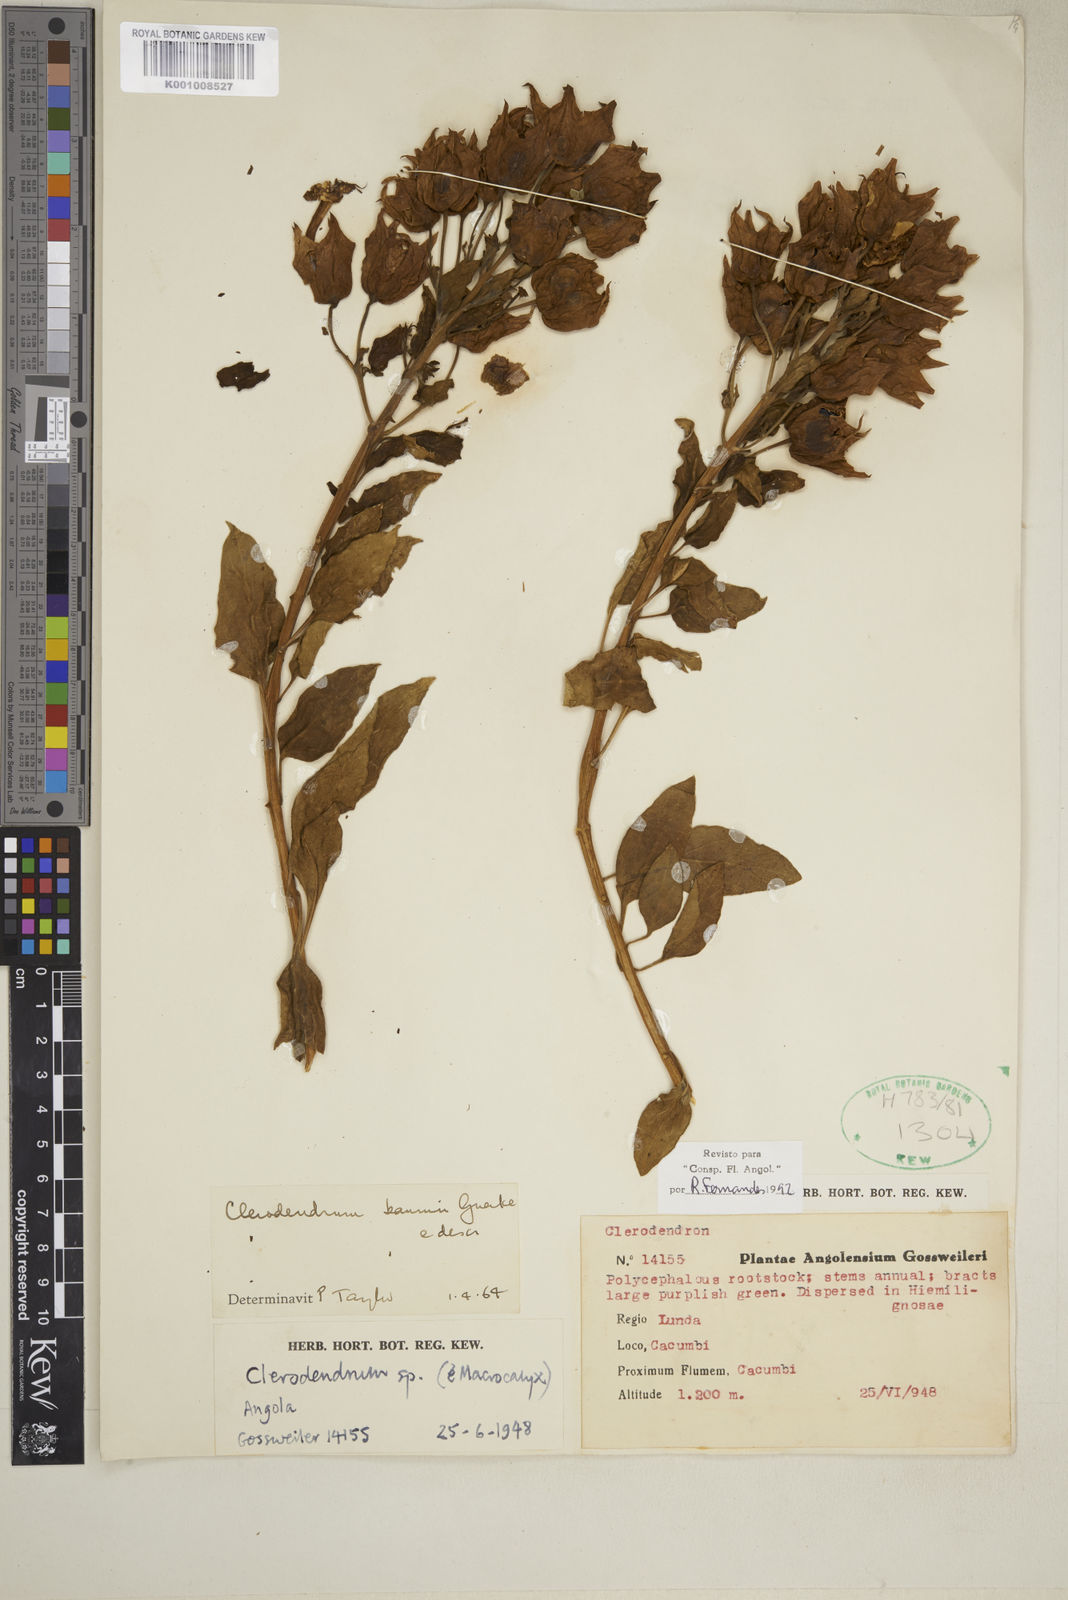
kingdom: Plantae
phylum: Tracheophyta
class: Magnoliopsida
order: Lamiales
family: Lamiaceae
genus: Clerodendrum
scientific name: Clerodendrum
